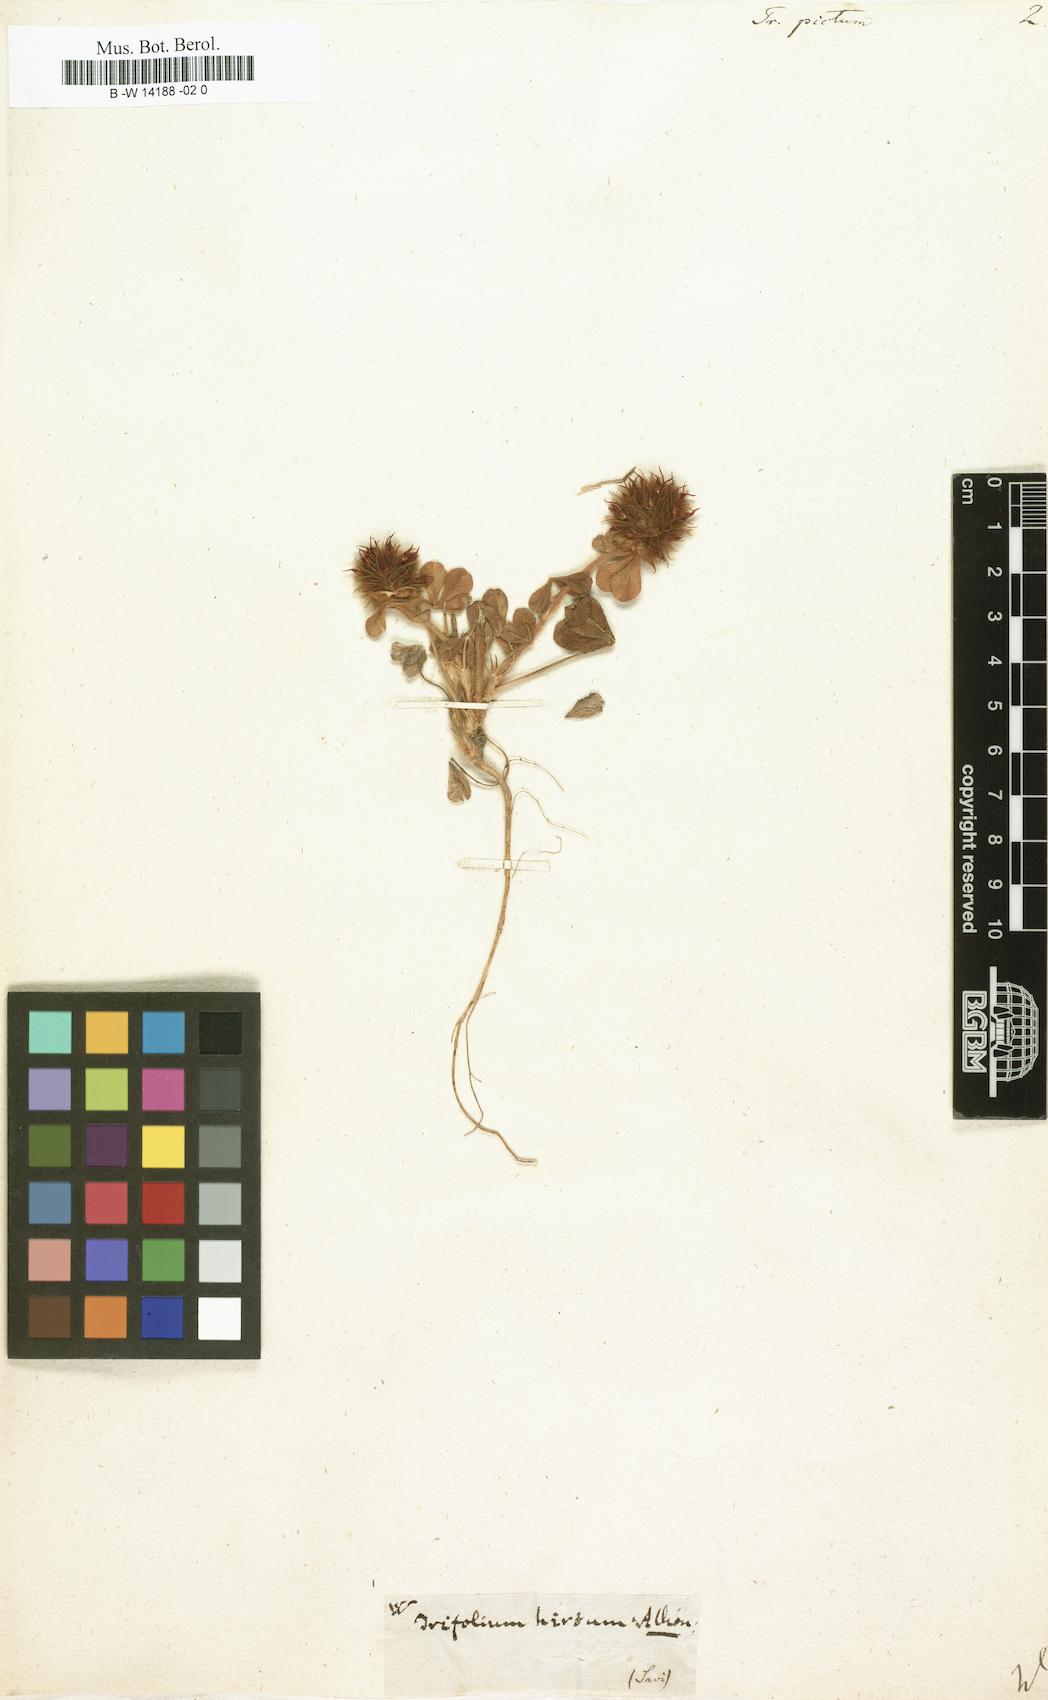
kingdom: Plantae
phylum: Tracheophyta
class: Magnoliopsida
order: Fabales
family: Fabaceae
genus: Trifolium
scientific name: Trifolium hirtum
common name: Rose clover
